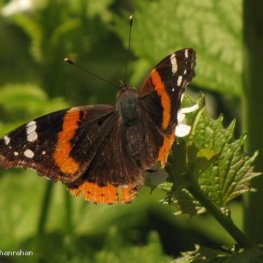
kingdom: Animalia
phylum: Arthropoda
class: Insecta
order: Lepidoptera
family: Nymphalidae
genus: Vanessa
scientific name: Vanessa atalanta
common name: Red Admiral
